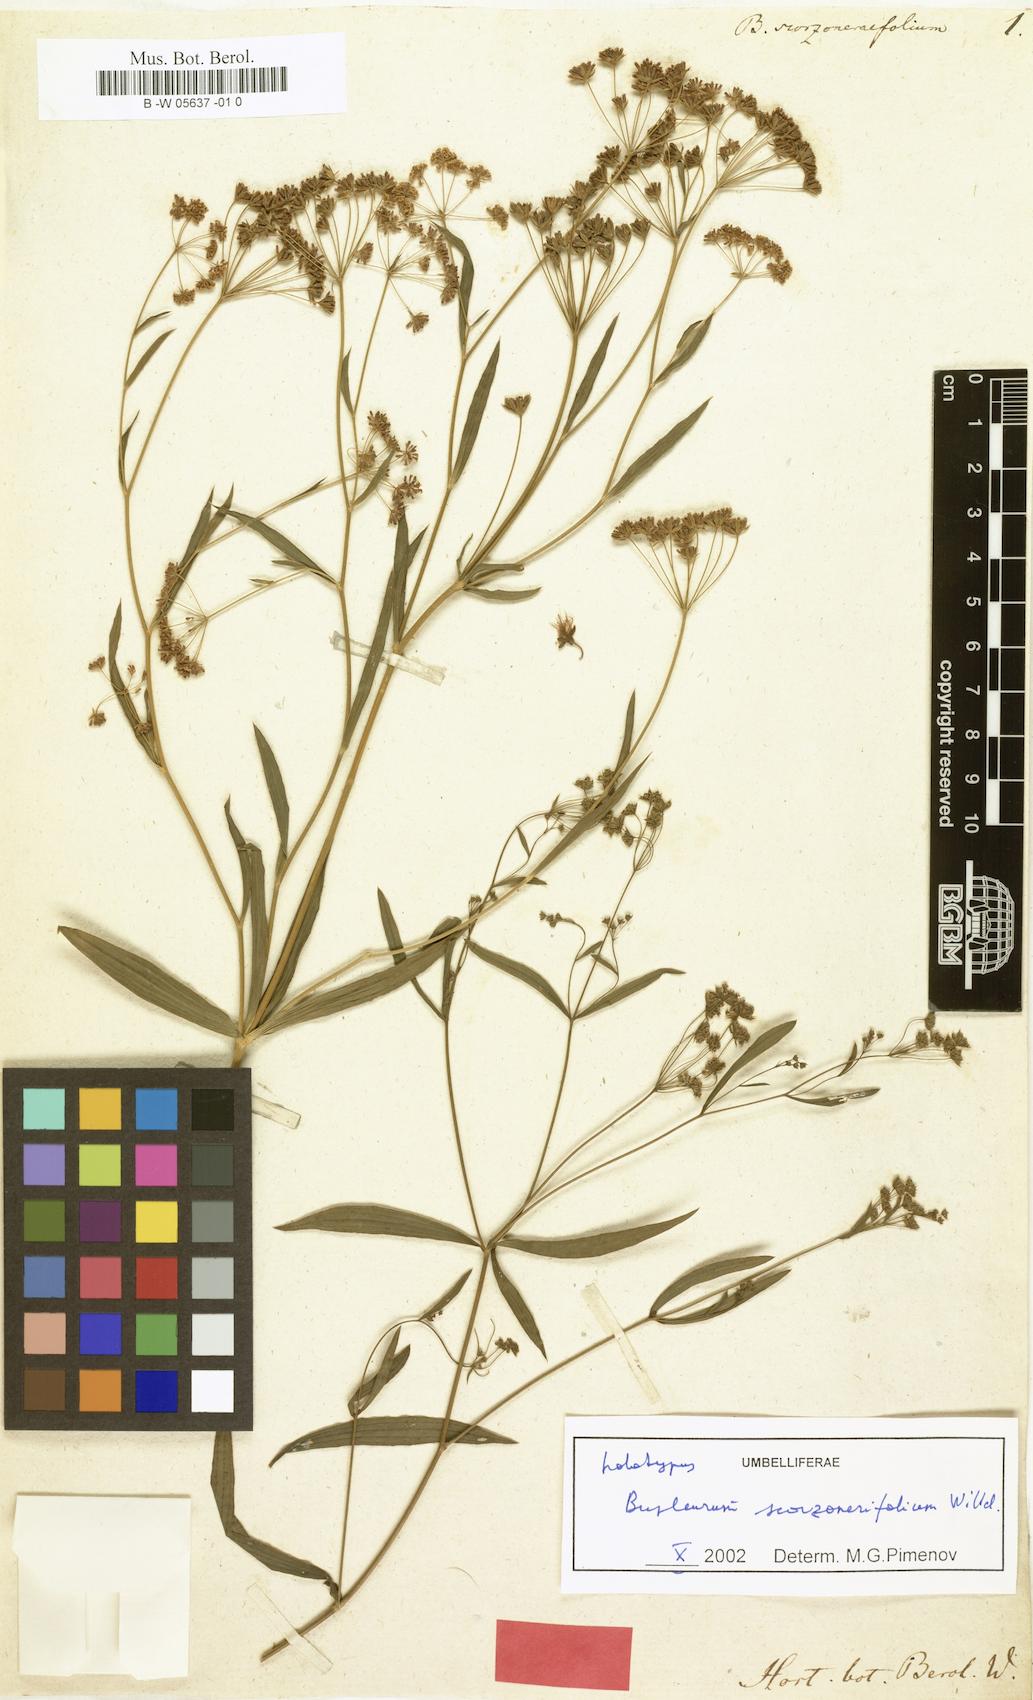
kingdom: Plantae
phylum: Tracheophyta
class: Magnoliopsida
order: Apiales
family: Apiaceae
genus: Bupleurum
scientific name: Bupleurum scorzonerifolium
